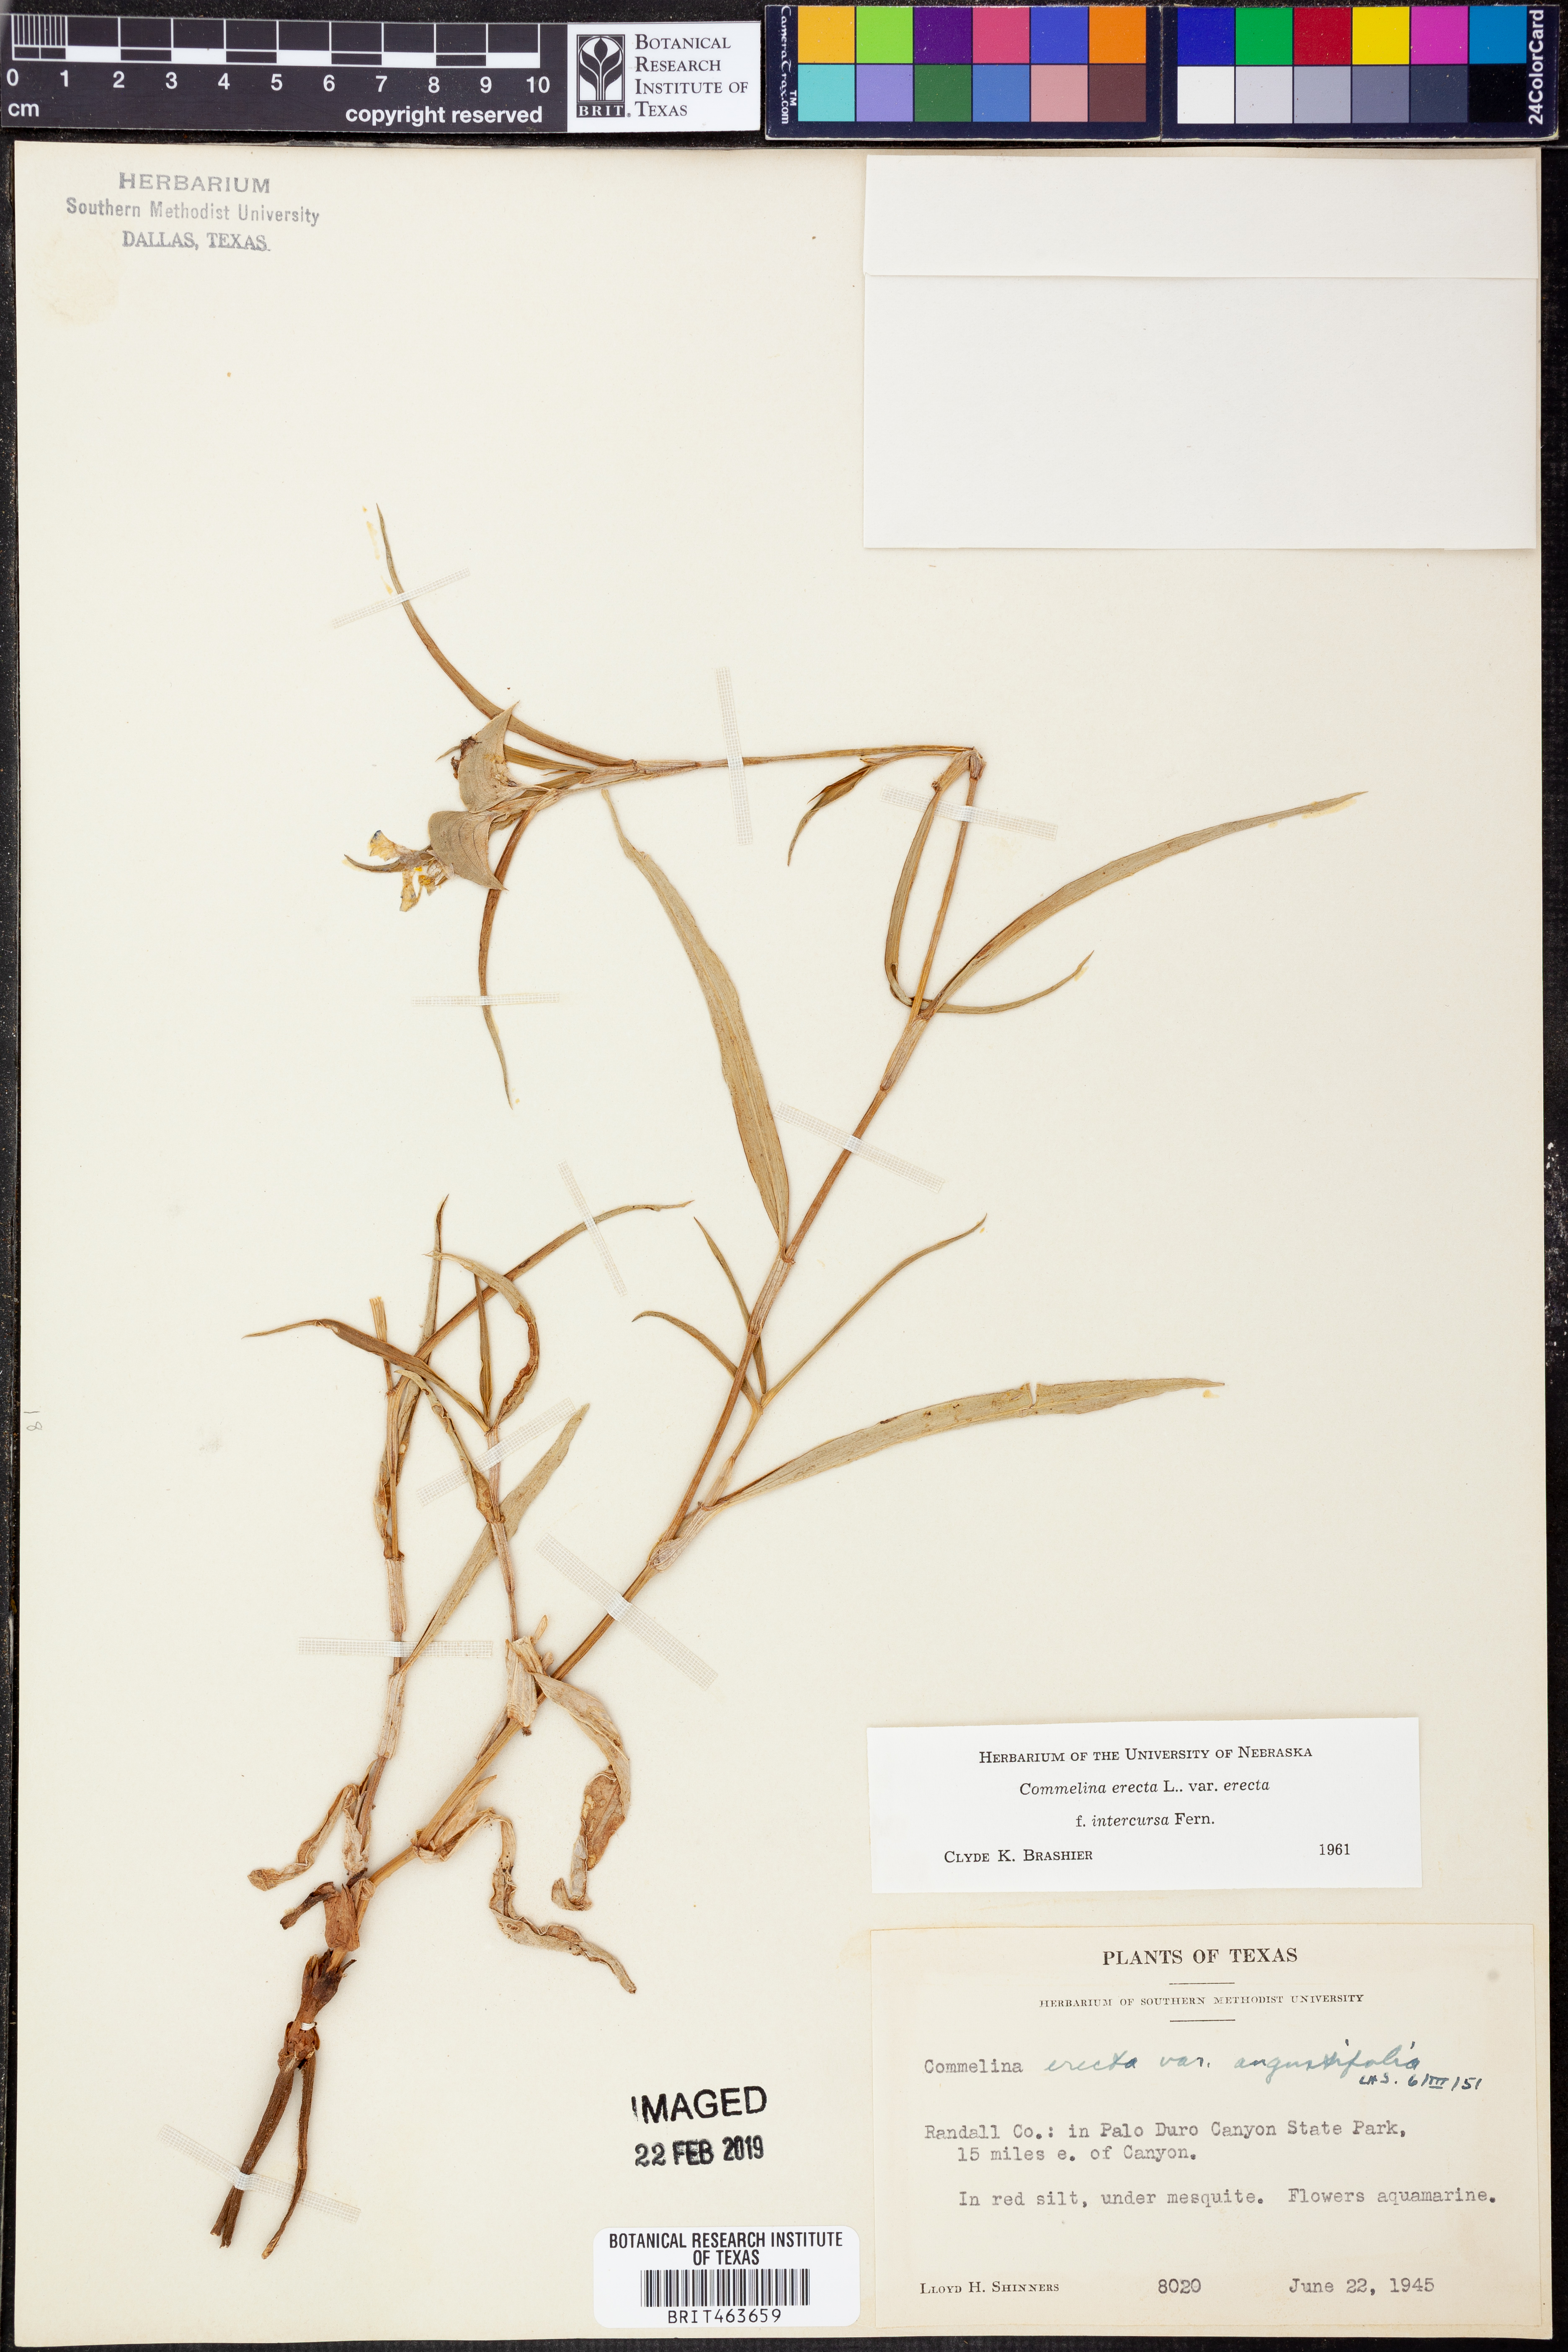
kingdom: Plantae
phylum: Tracheophyta
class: Liliopsida
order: Commelinales
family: Commelinaceae
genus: Commelina
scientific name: Commelina erecta
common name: Blousel blommetjie
